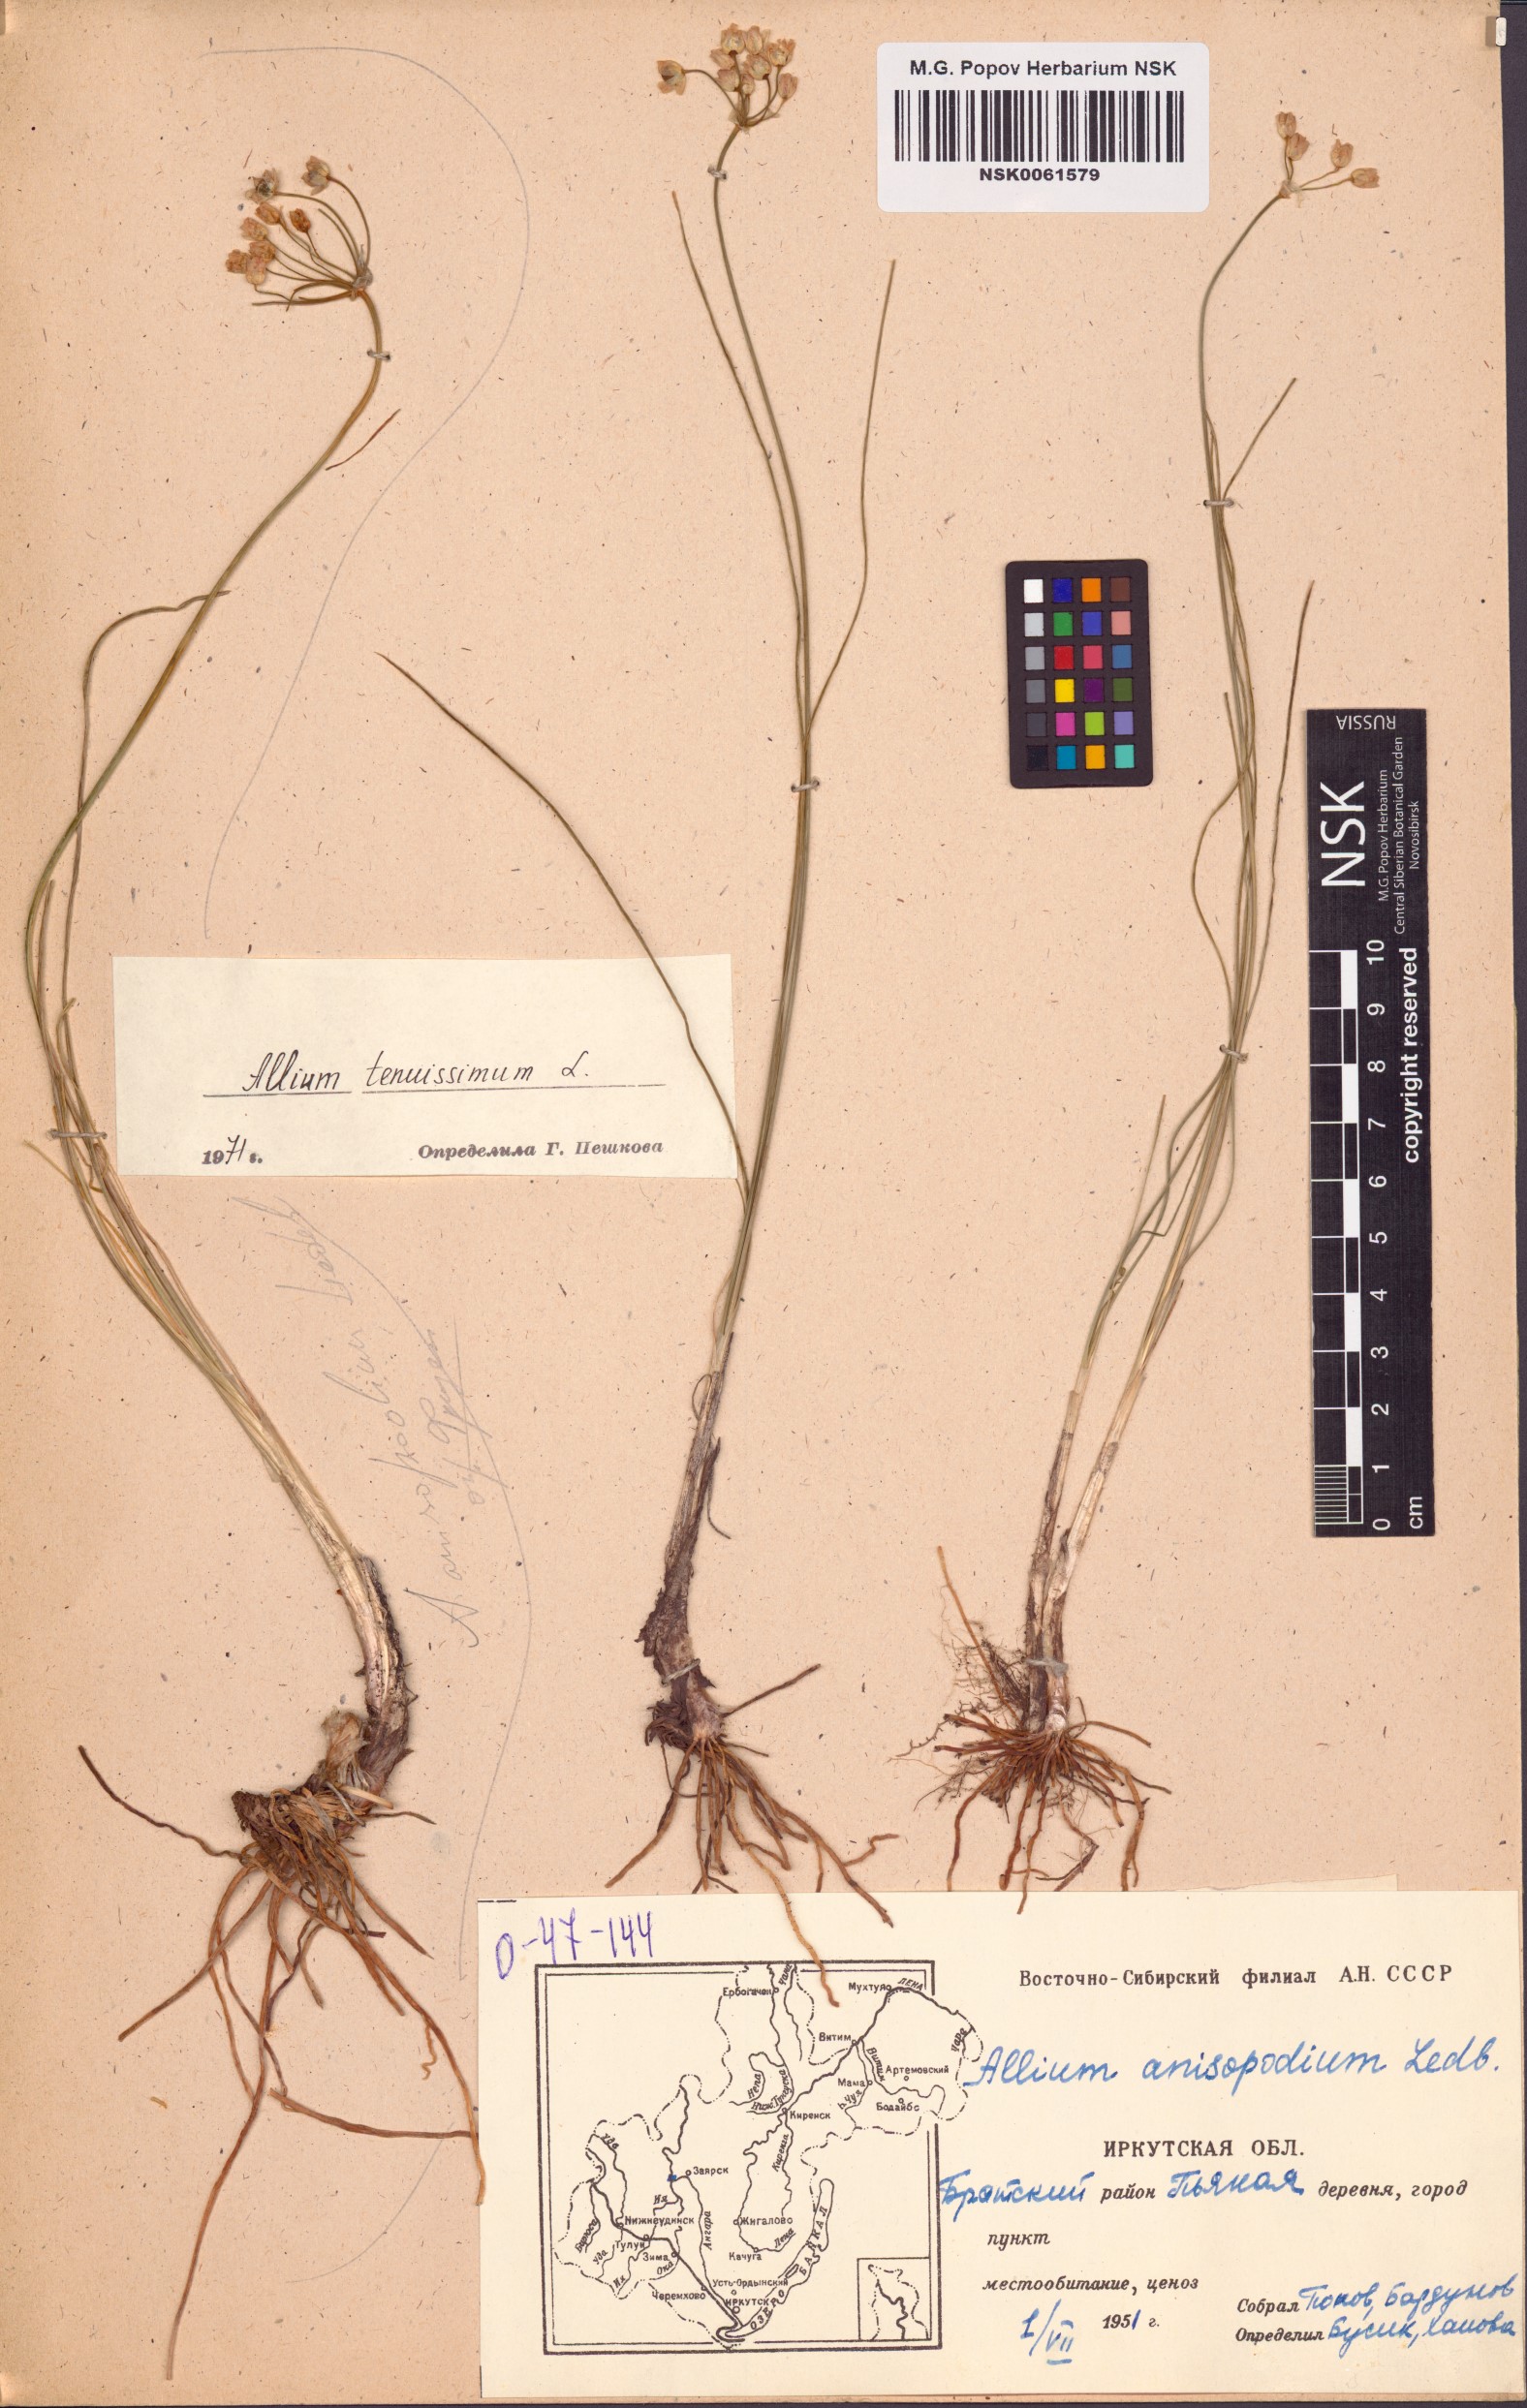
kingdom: Plantae
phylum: Tracheophyta
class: Liliopsida
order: Asparagales
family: Amaryllidaceae
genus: Allium
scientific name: Allium tenuissimum
